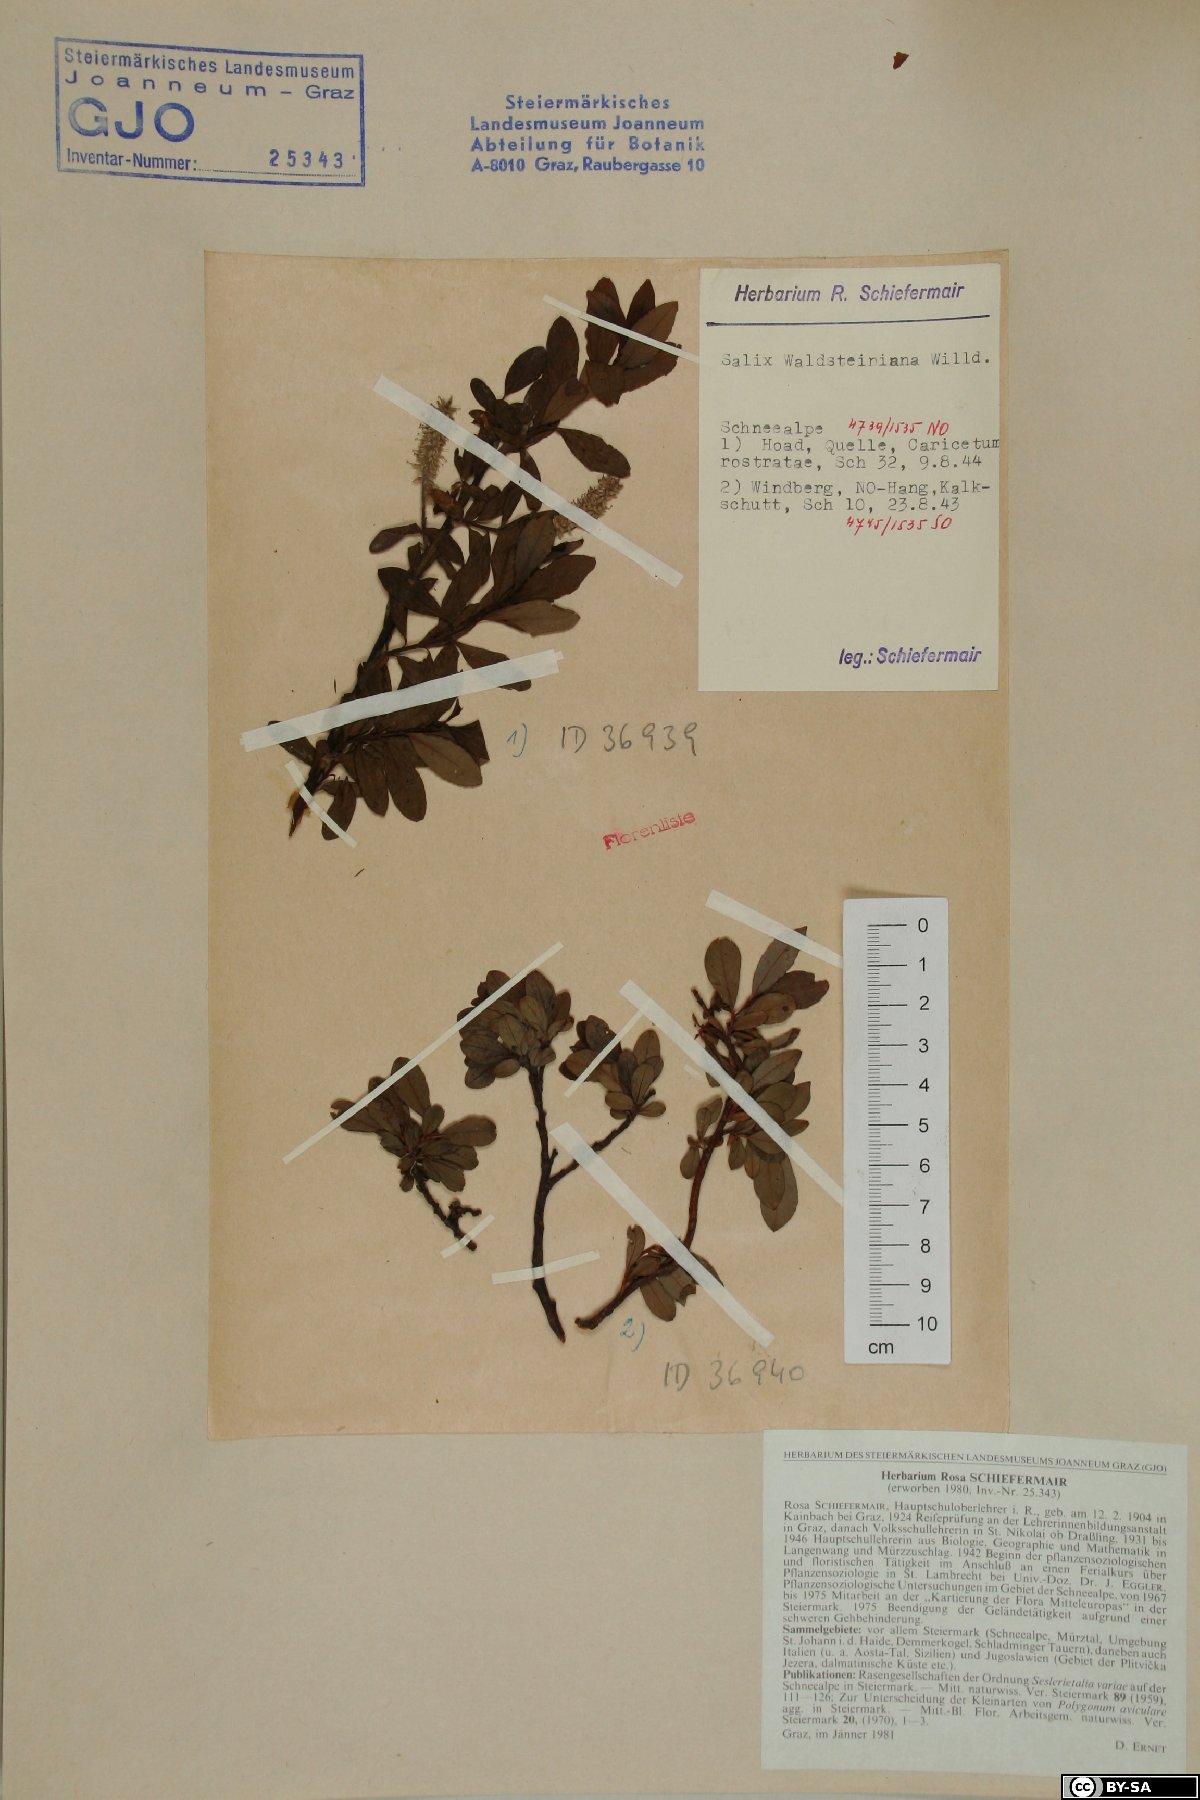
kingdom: Plantae
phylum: Tracheophyta
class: Magnoliopsida
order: Malpighiales
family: Salicaceae
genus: Salix
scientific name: Salix waldsteiniana
